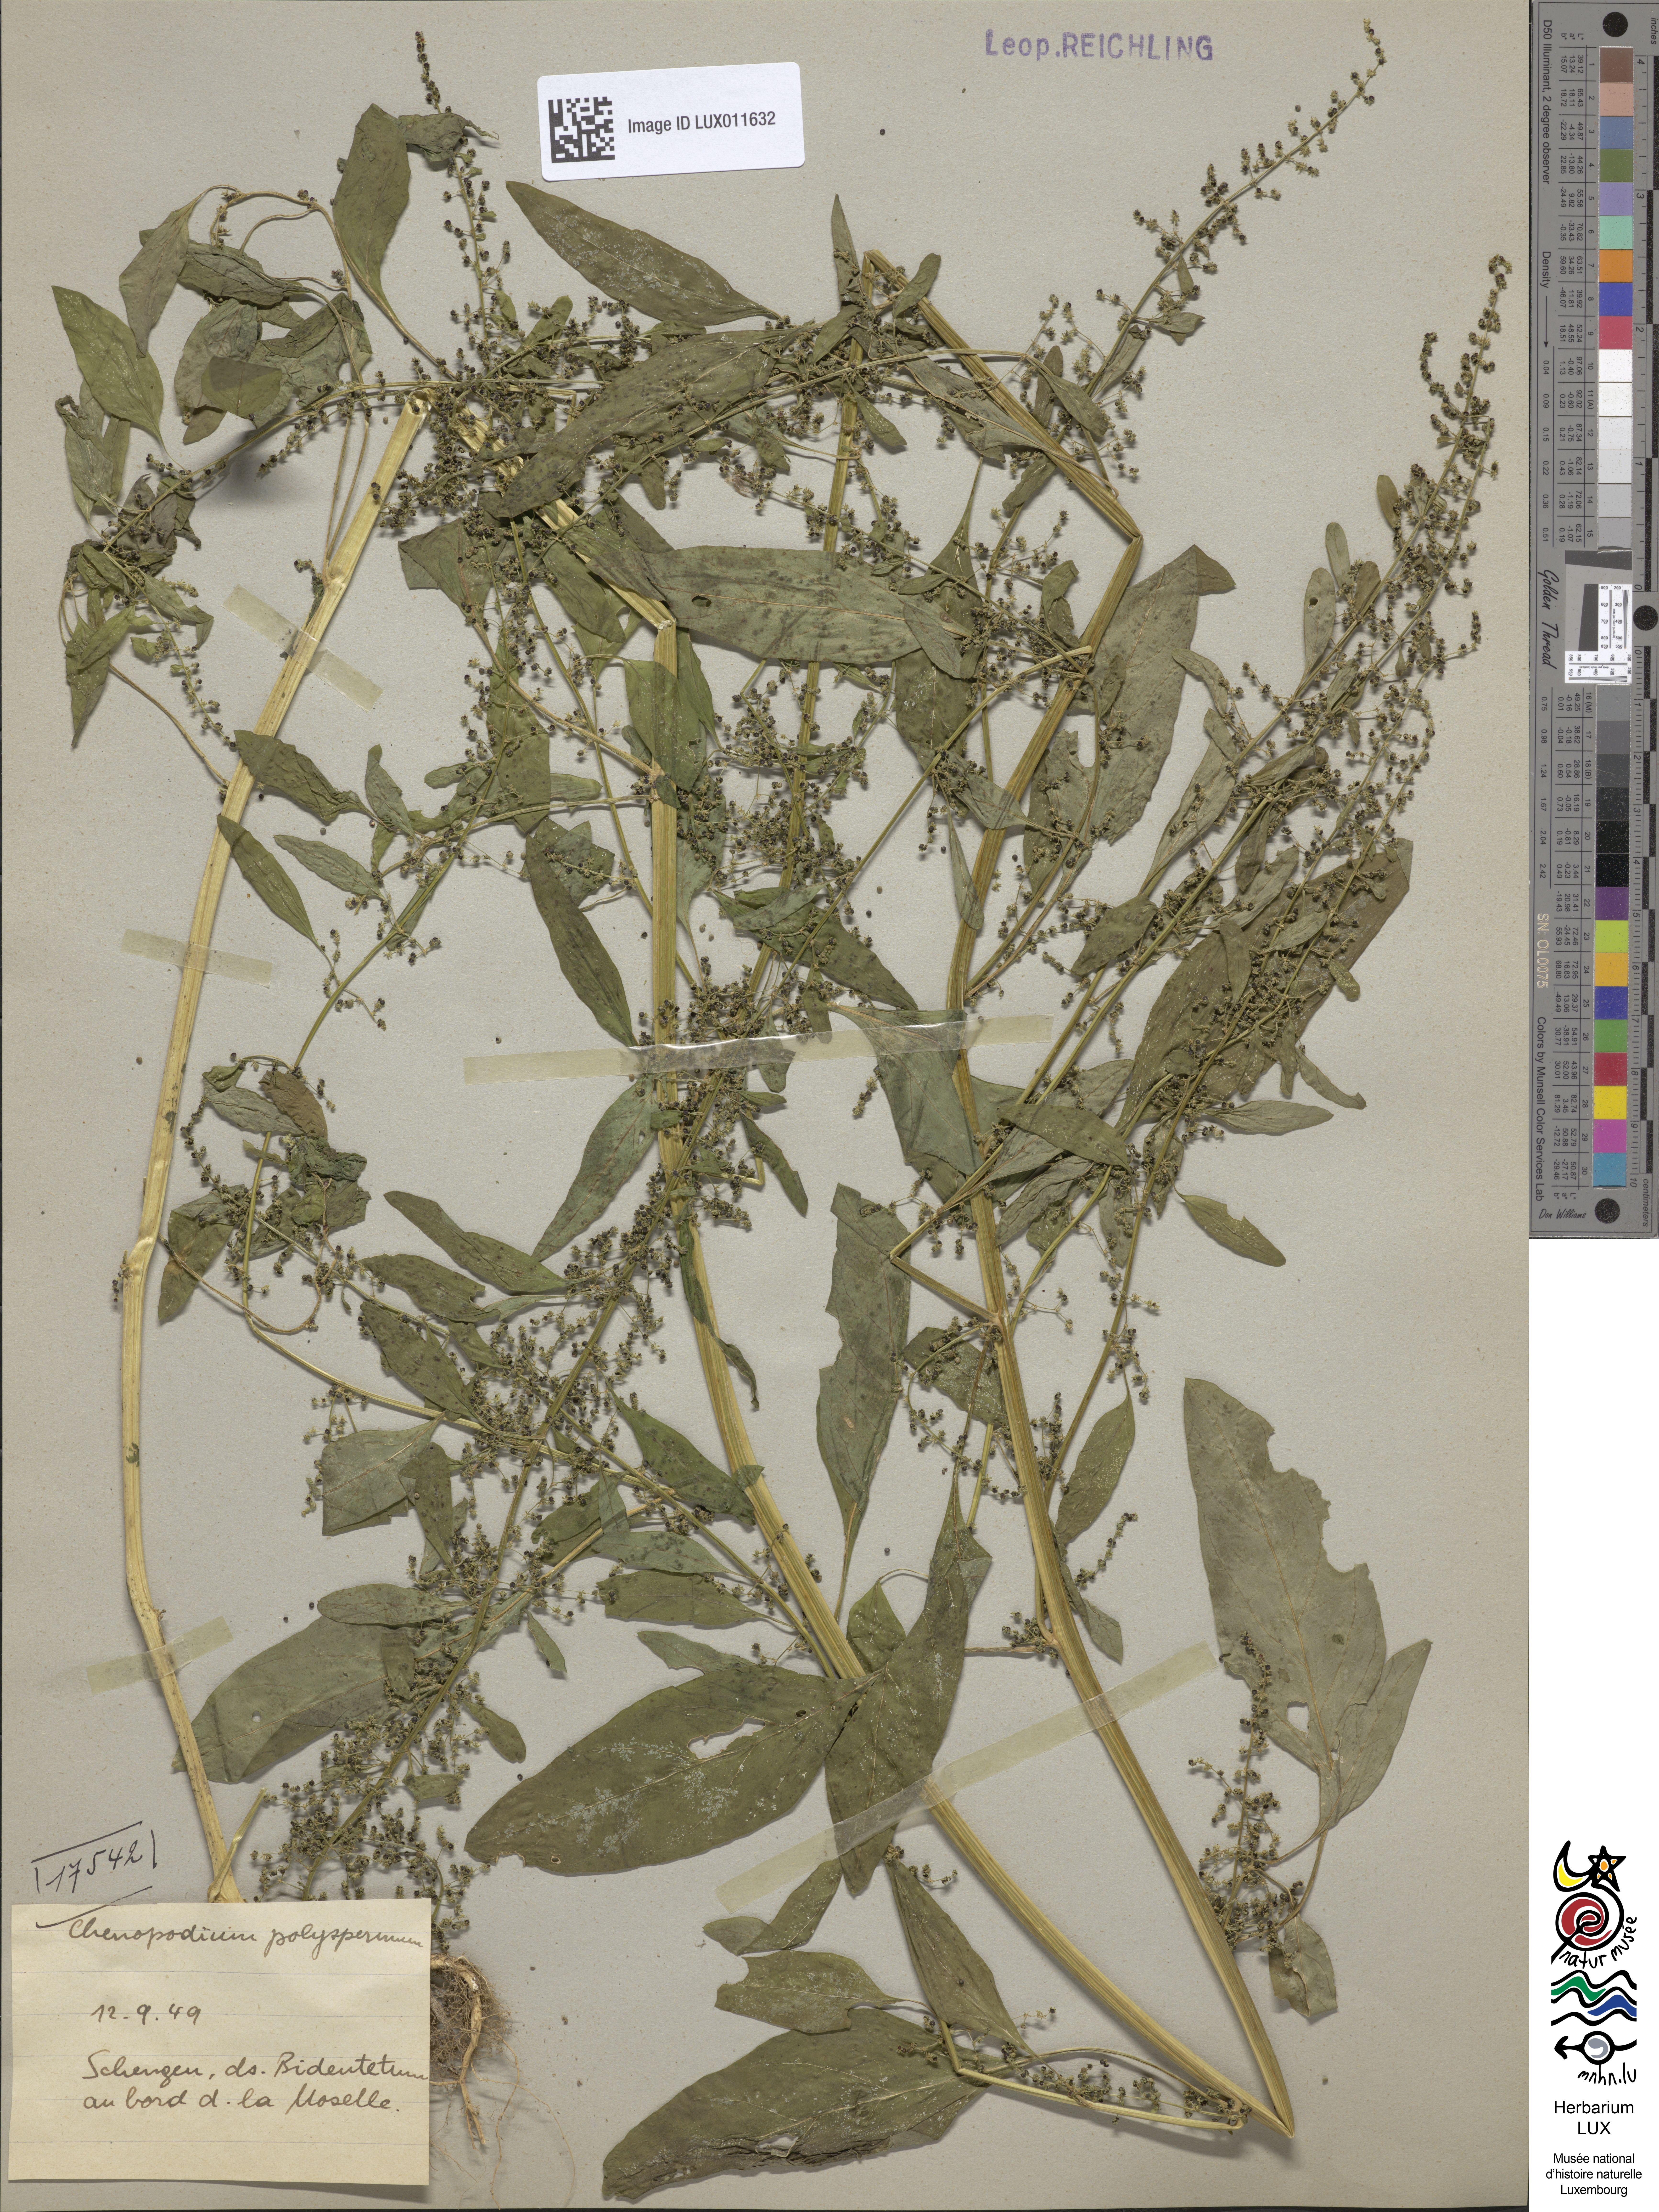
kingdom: Plantae
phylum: Tracheophyta
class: Magnoliopsida
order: Caryophyllales
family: Amaranthaceae
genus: Lipandra
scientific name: Lipandra polysperma
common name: Many-seed goosefoot
